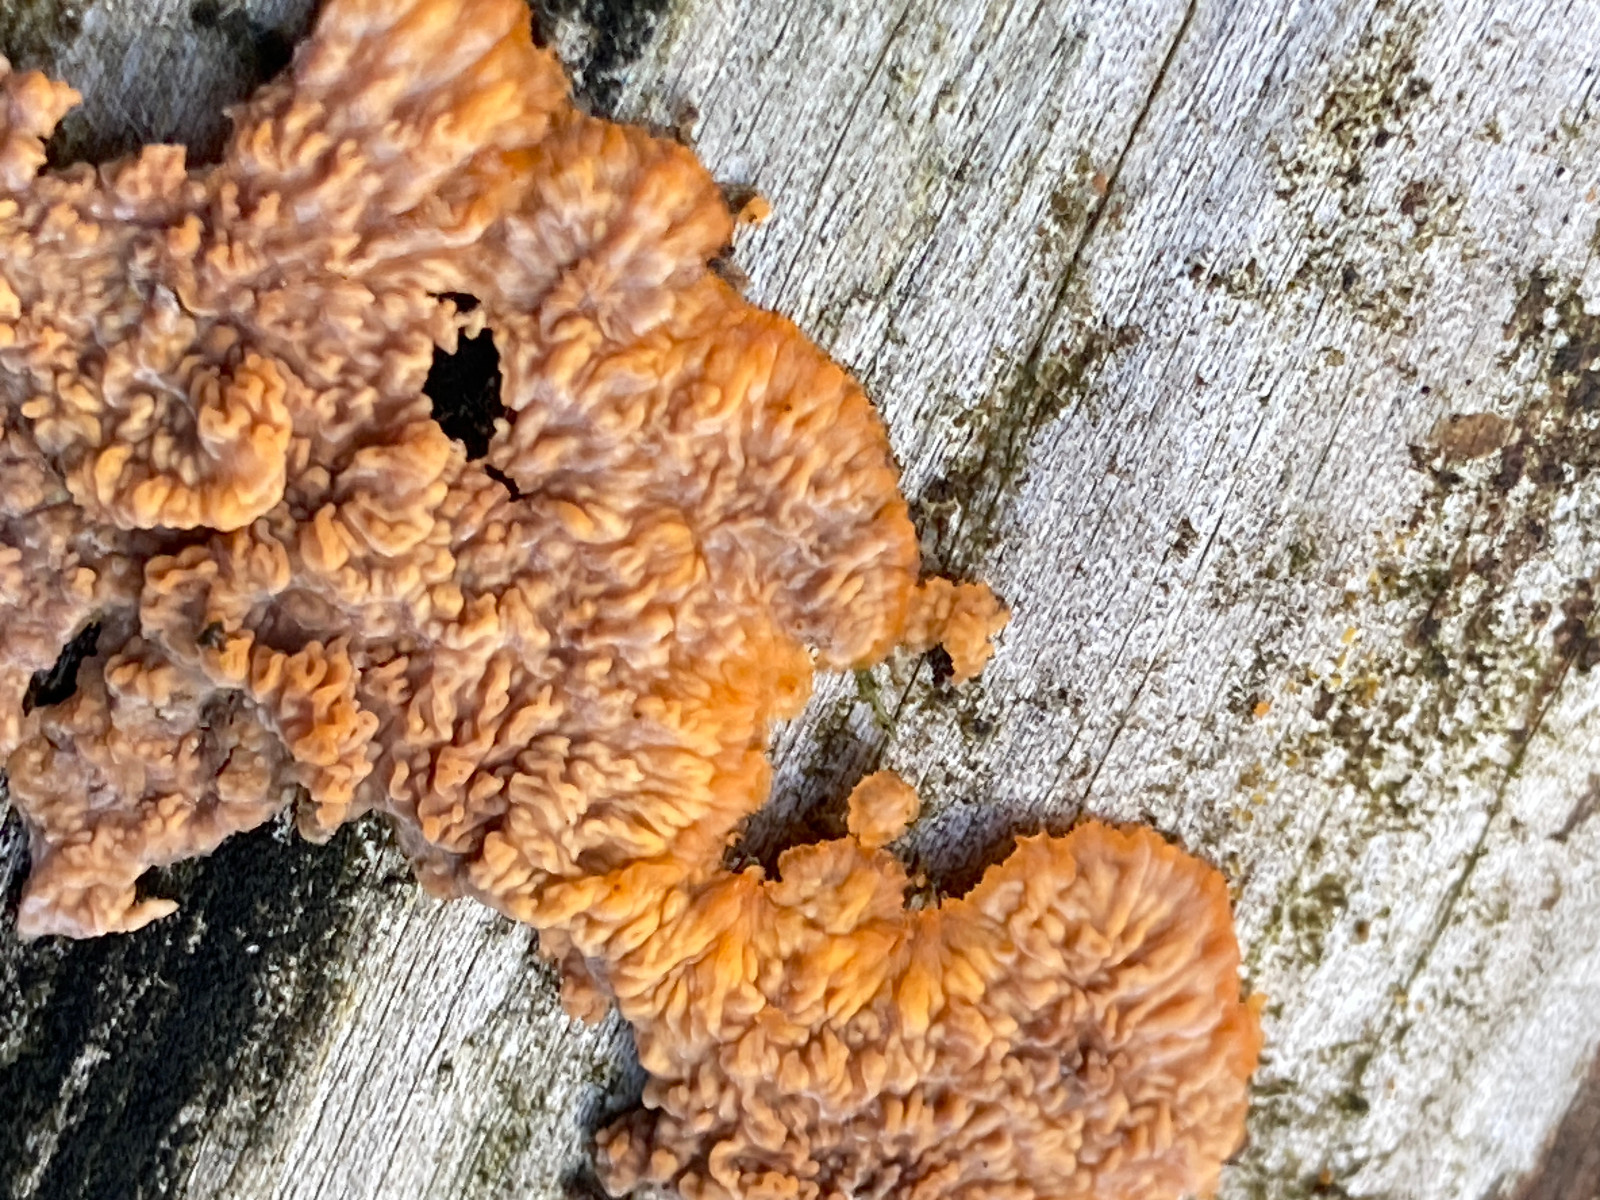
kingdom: Fungi
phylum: Basidiomycota
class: Agaricomycetes
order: Polyporales
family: Meruliaceae
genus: Phlebia
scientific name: Phlebia radiata
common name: stråle-åresvamp
